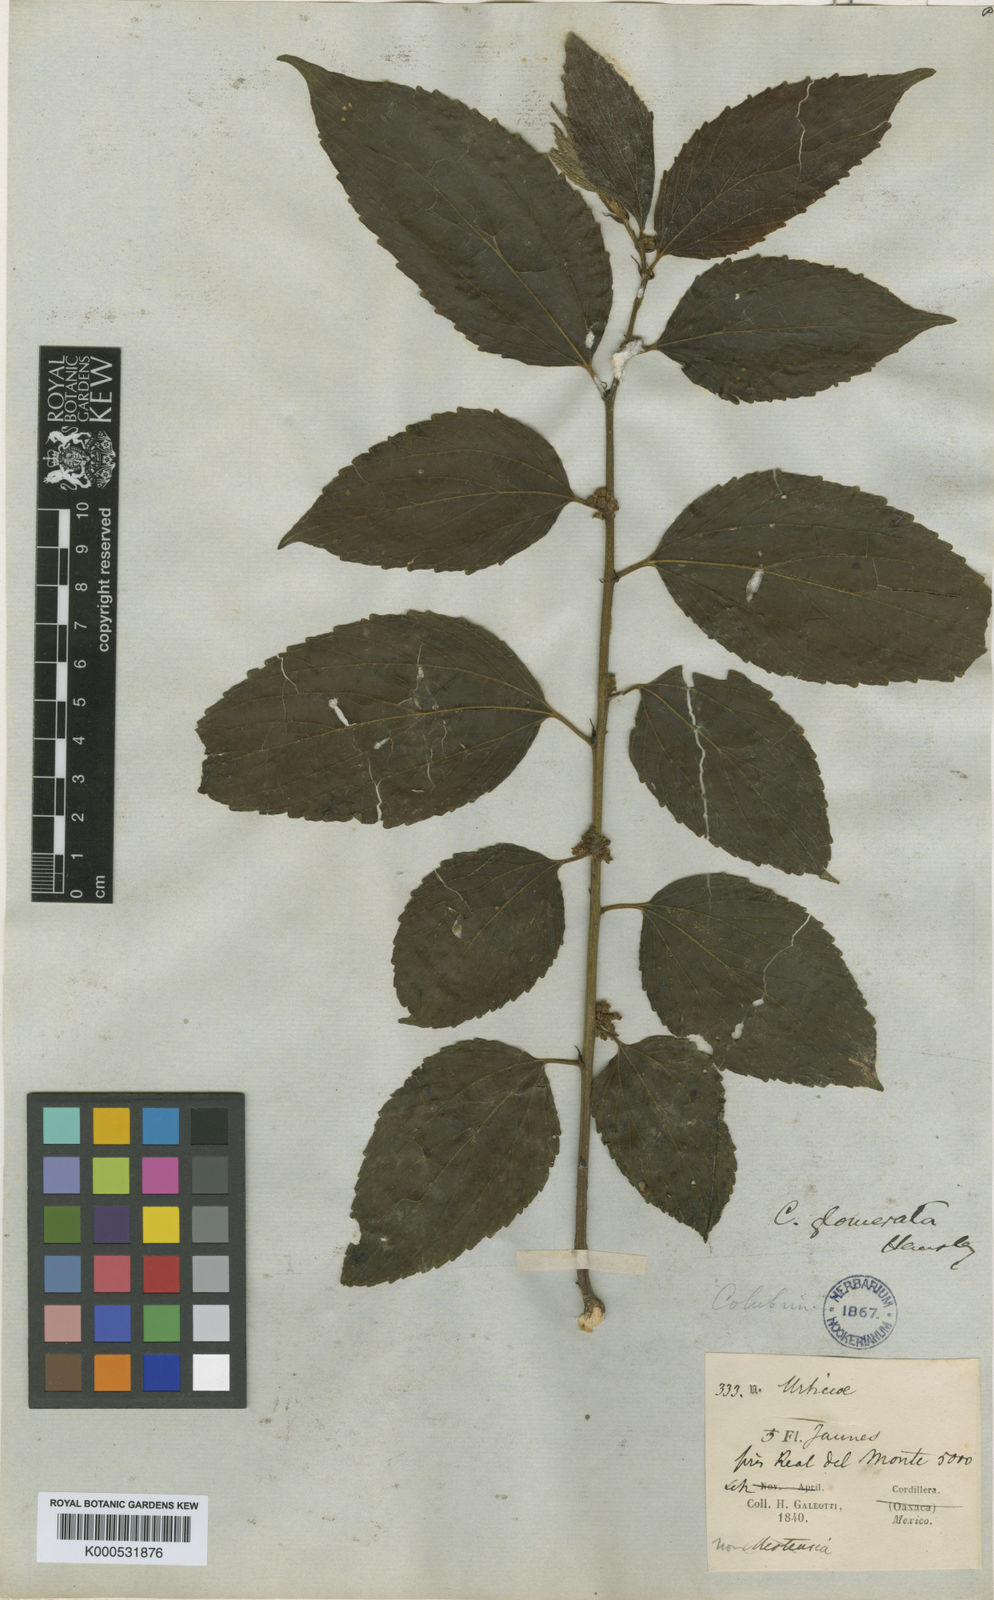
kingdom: Plantae
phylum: Tracheophyta
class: Magnoliopsida
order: Rosales
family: Rhamnaceae
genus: Colubrina
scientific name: Colubrina triflora
